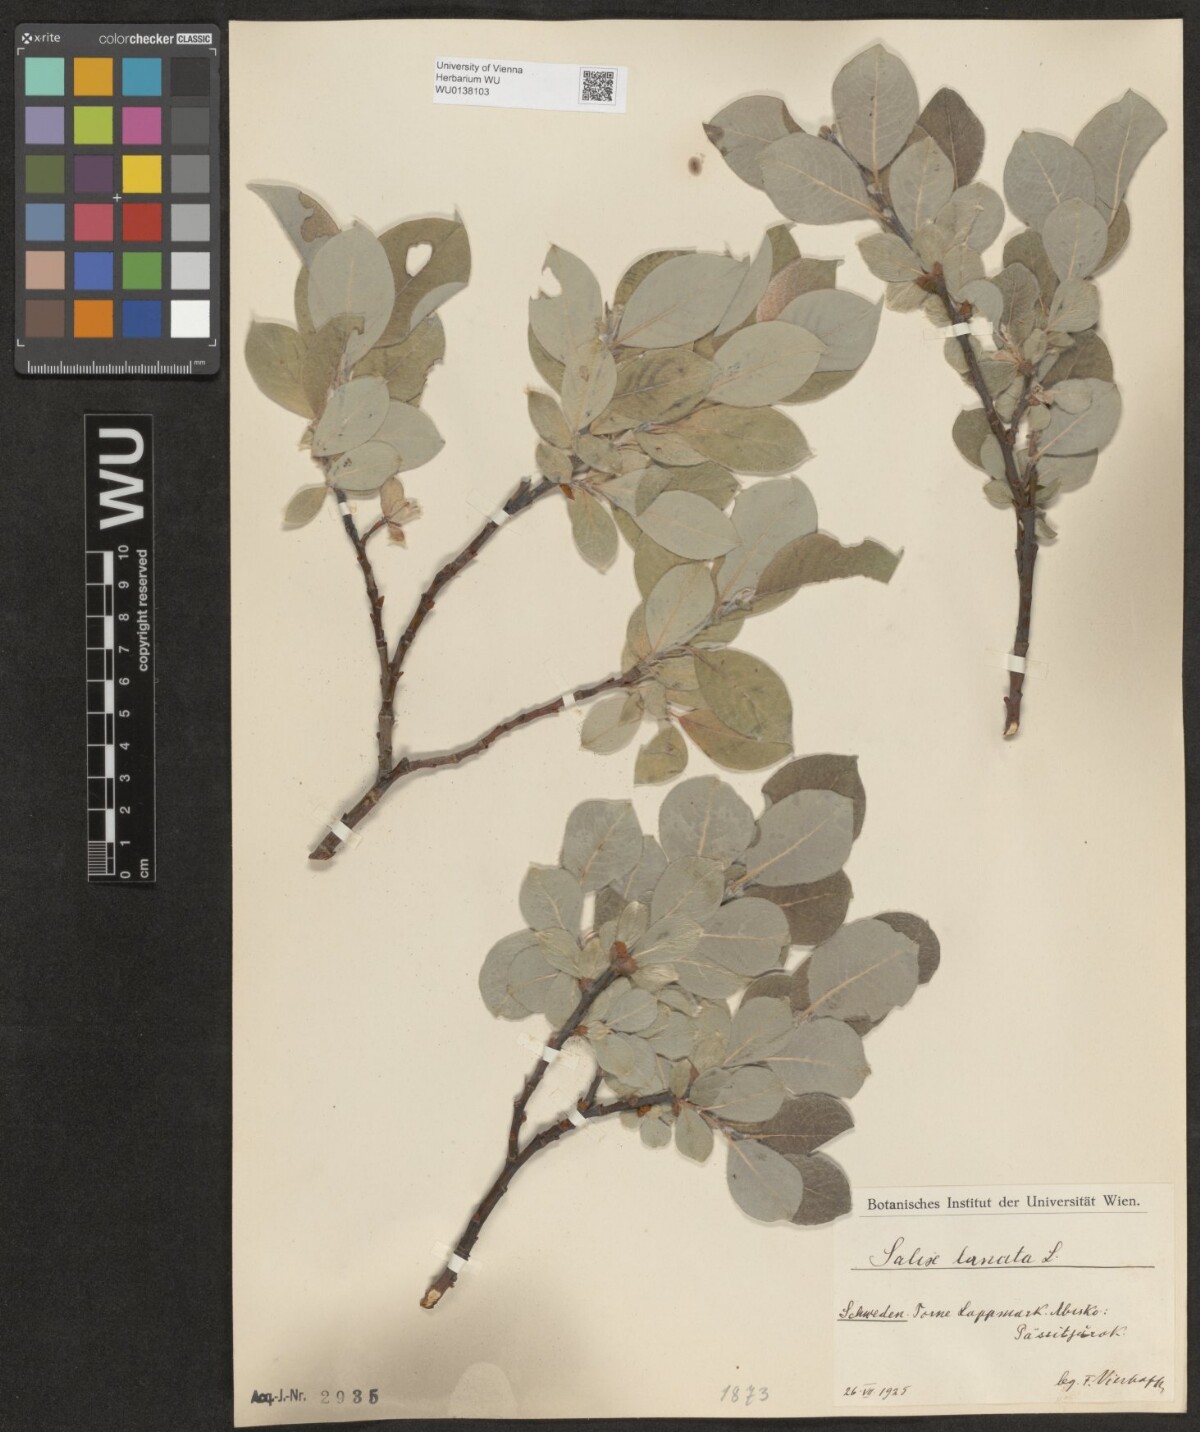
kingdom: Plantae
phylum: Tracheophyta
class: Magnoliopsida
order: Malpighiales
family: Salicaceae
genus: Salix
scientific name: Salix lanata
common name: Woolly willow
